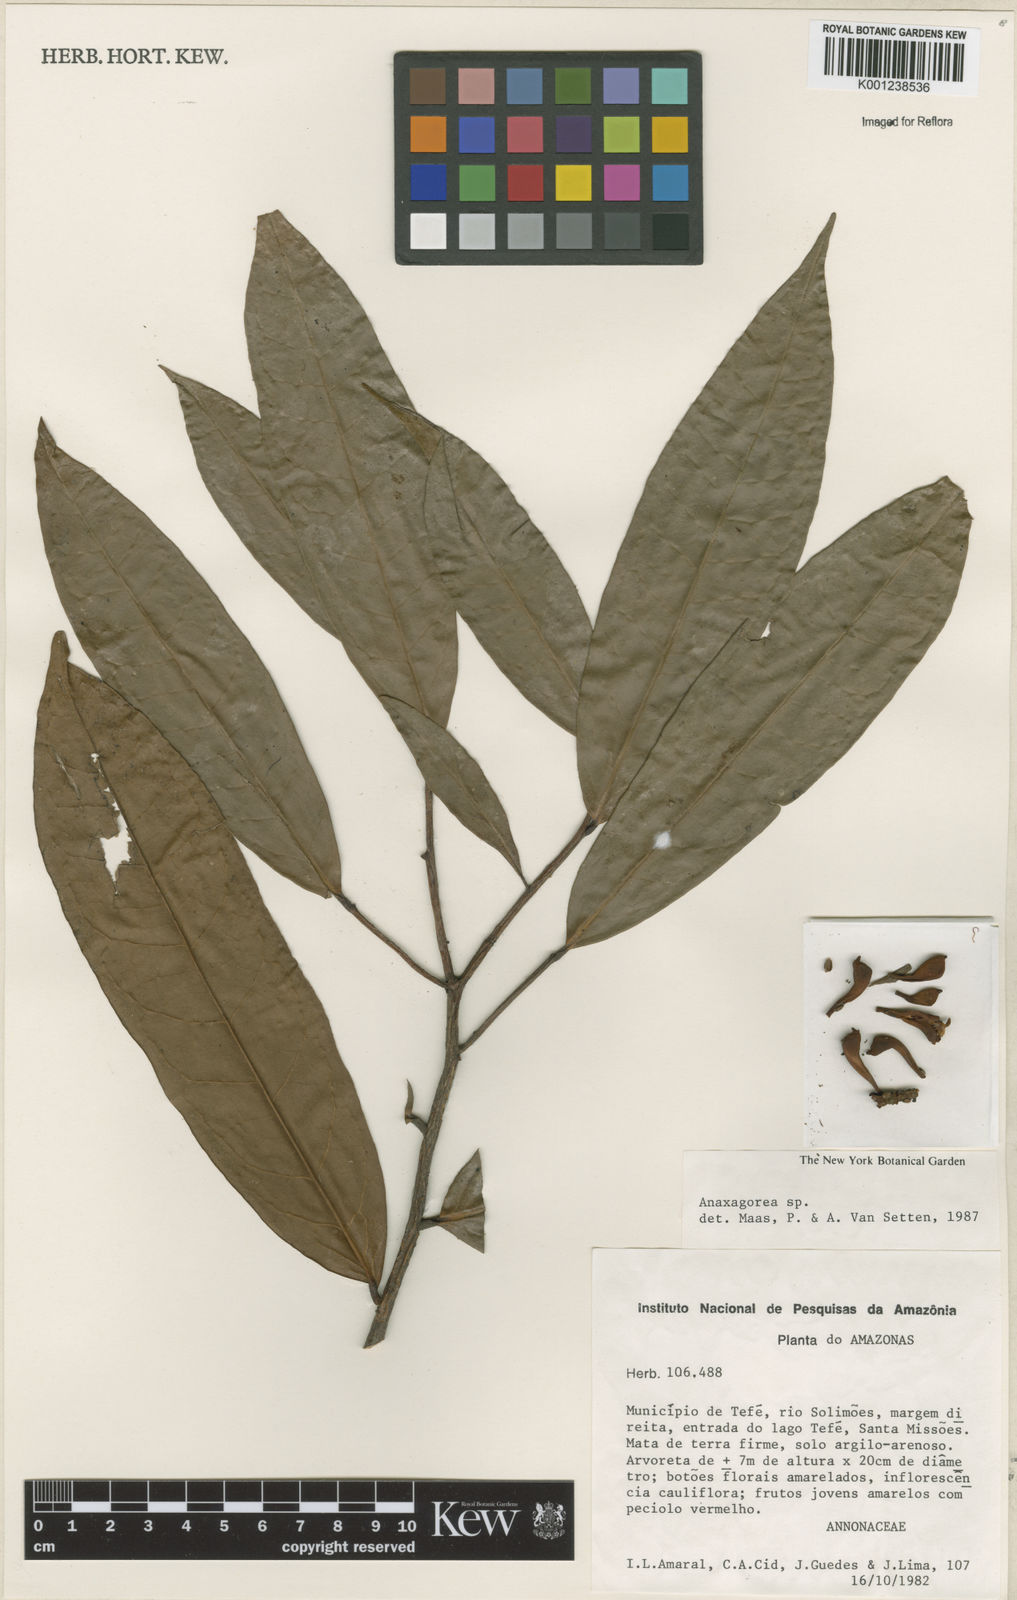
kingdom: Plantae
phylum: Tracheophyta
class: Magnoliopsida
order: Magnoliales
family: Annonaceae
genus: Anaxagorea
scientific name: Anaxagorea
